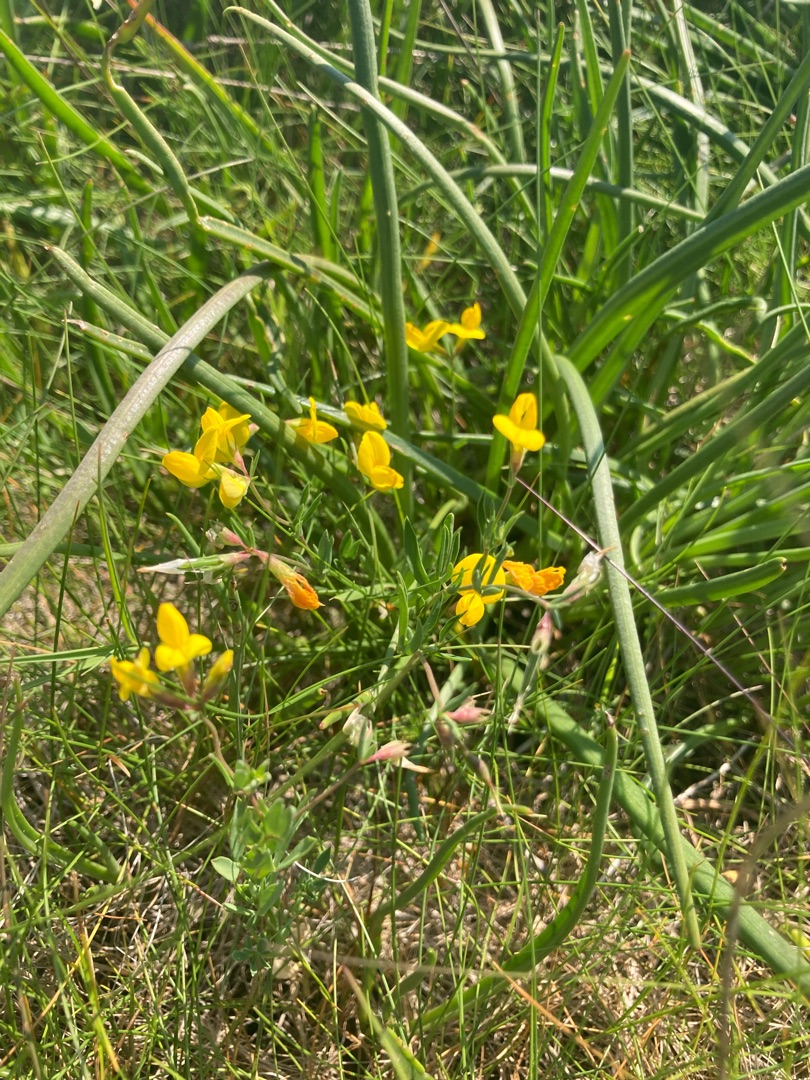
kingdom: Plantae
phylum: Tracheophyta
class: Magnoliopsida
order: Fabales
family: Fabaceae
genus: Lotus
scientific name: Lotus tenuis
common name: Smalbladet kællingetand
